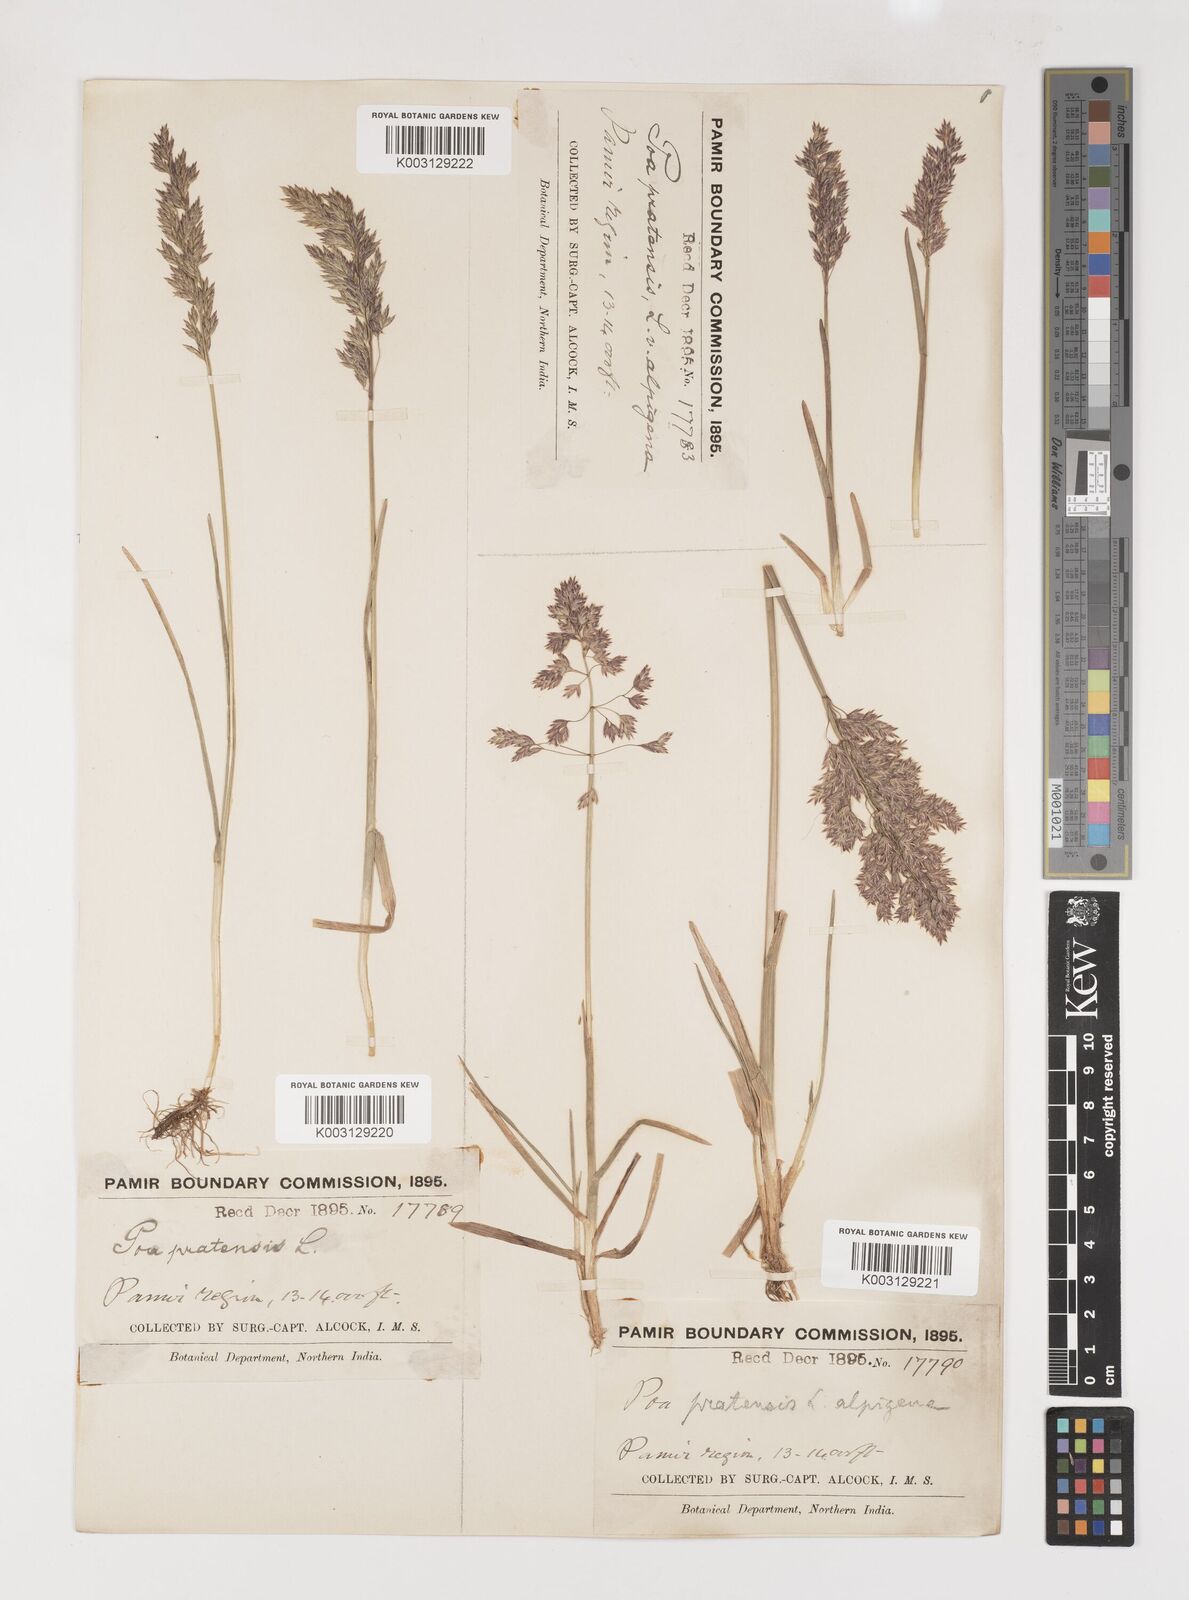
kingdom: Plantae
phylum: Tracheophyta
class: Liliopsida
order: Poales
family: Poaceae
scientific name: Poaceae
